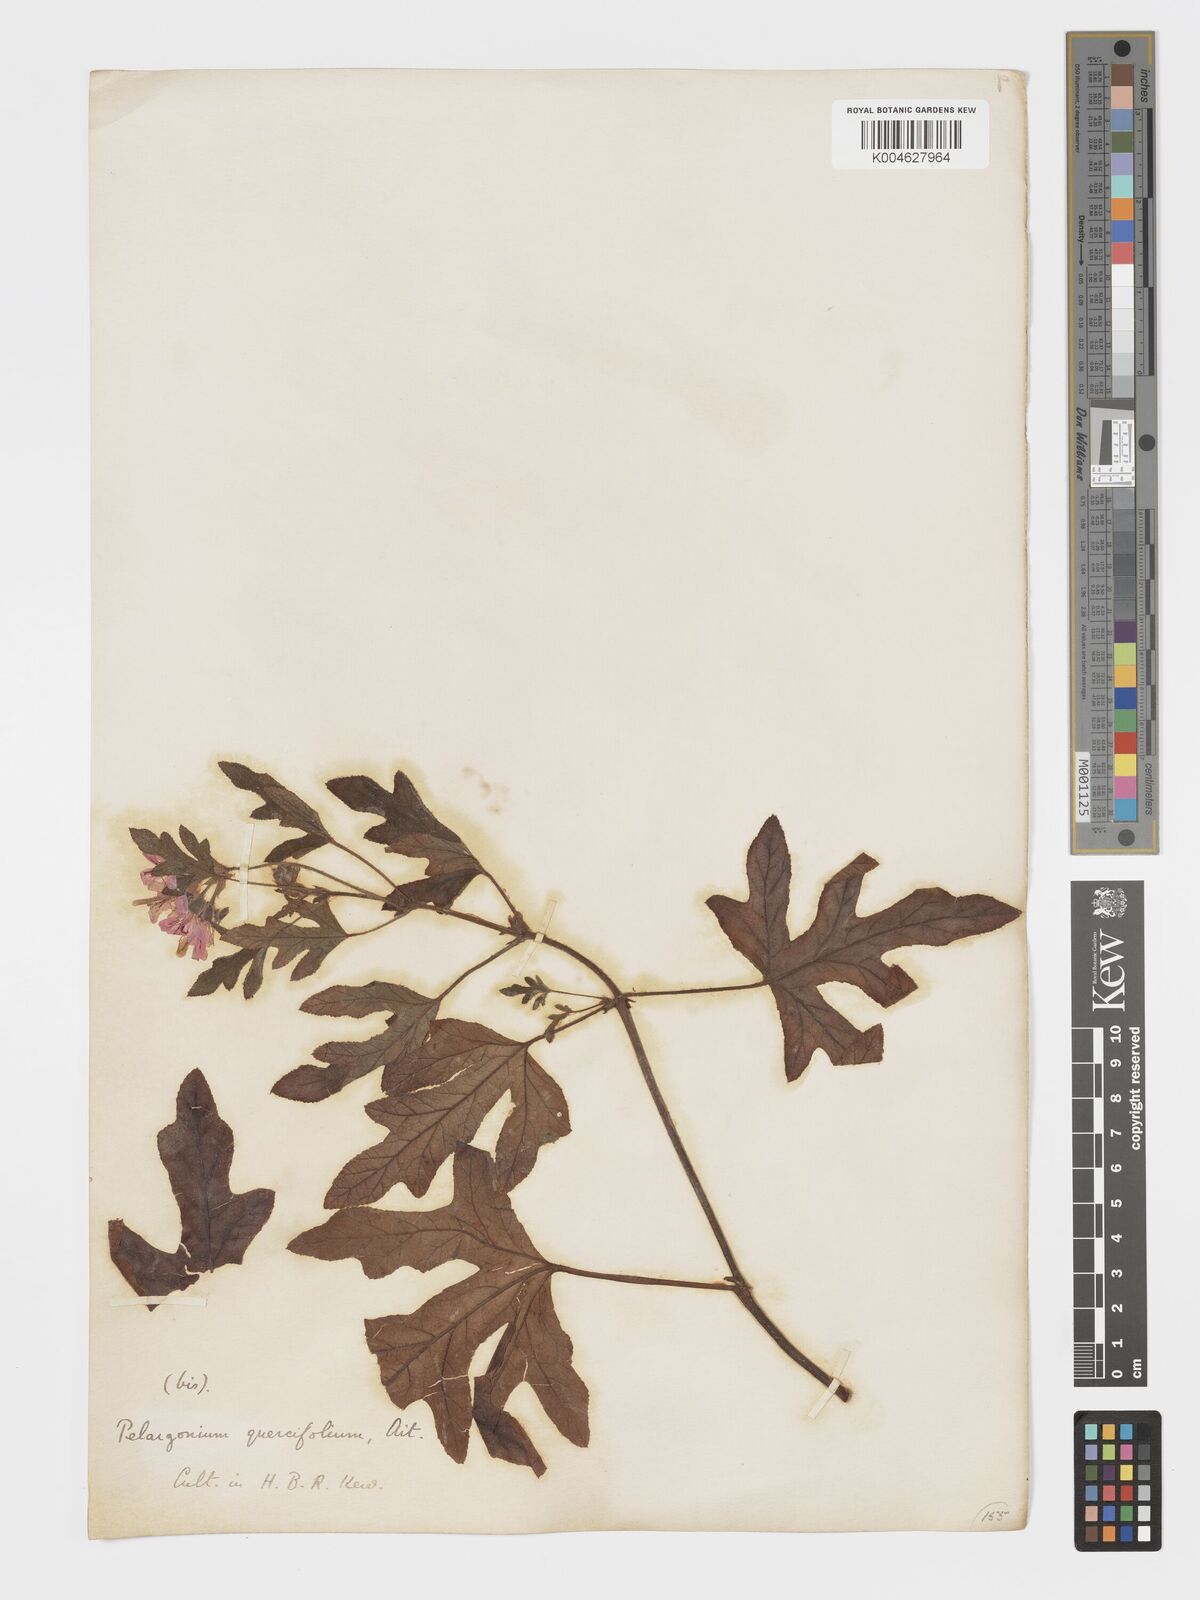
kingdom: Plantae
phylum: Tracheophyta
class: Magnoliopsida
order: Geraniales
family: Geraniaceae
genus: Pelargonium
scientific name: Pelargonium quercifolium
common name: Oakleaf geranium
